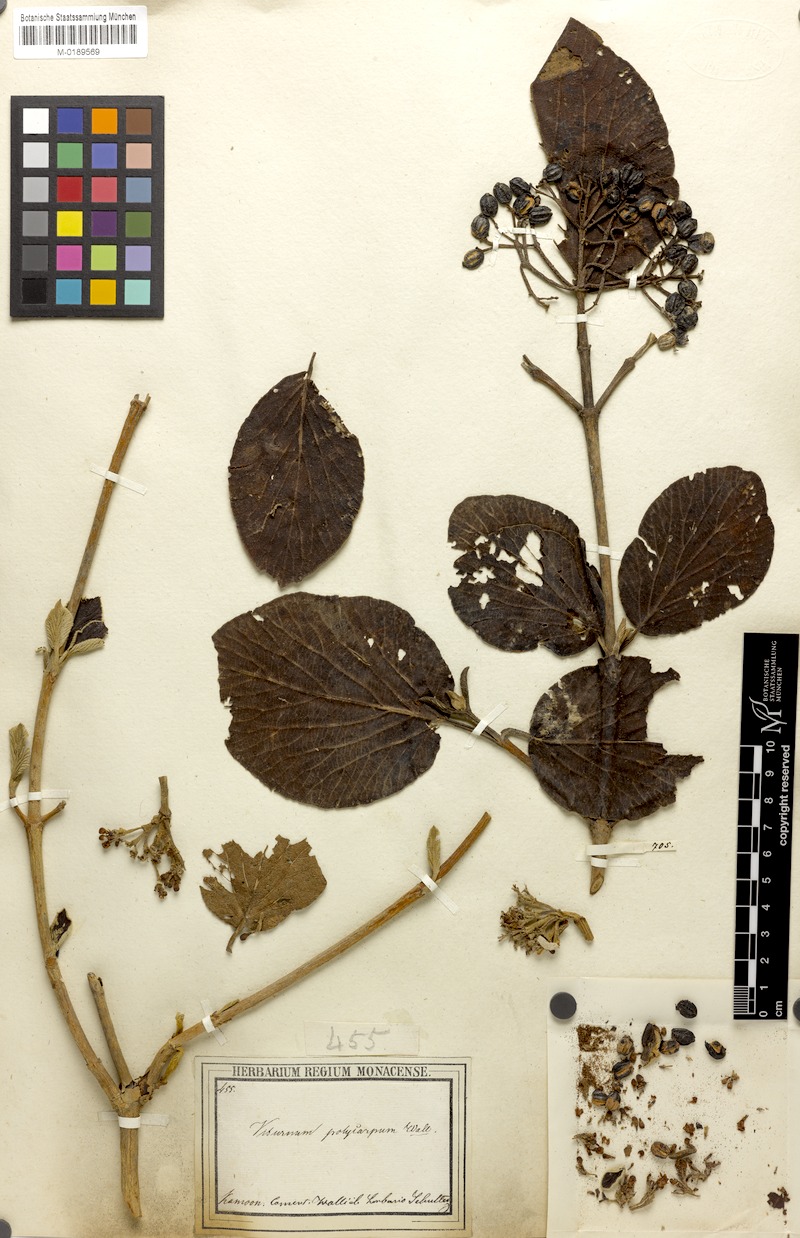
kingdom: Plantae
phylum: Tracheophyta
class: Magnoliopsida
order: Dipsacales
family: Viburnaceae
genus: Viburnum
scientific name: Viburnum cotinifolium
